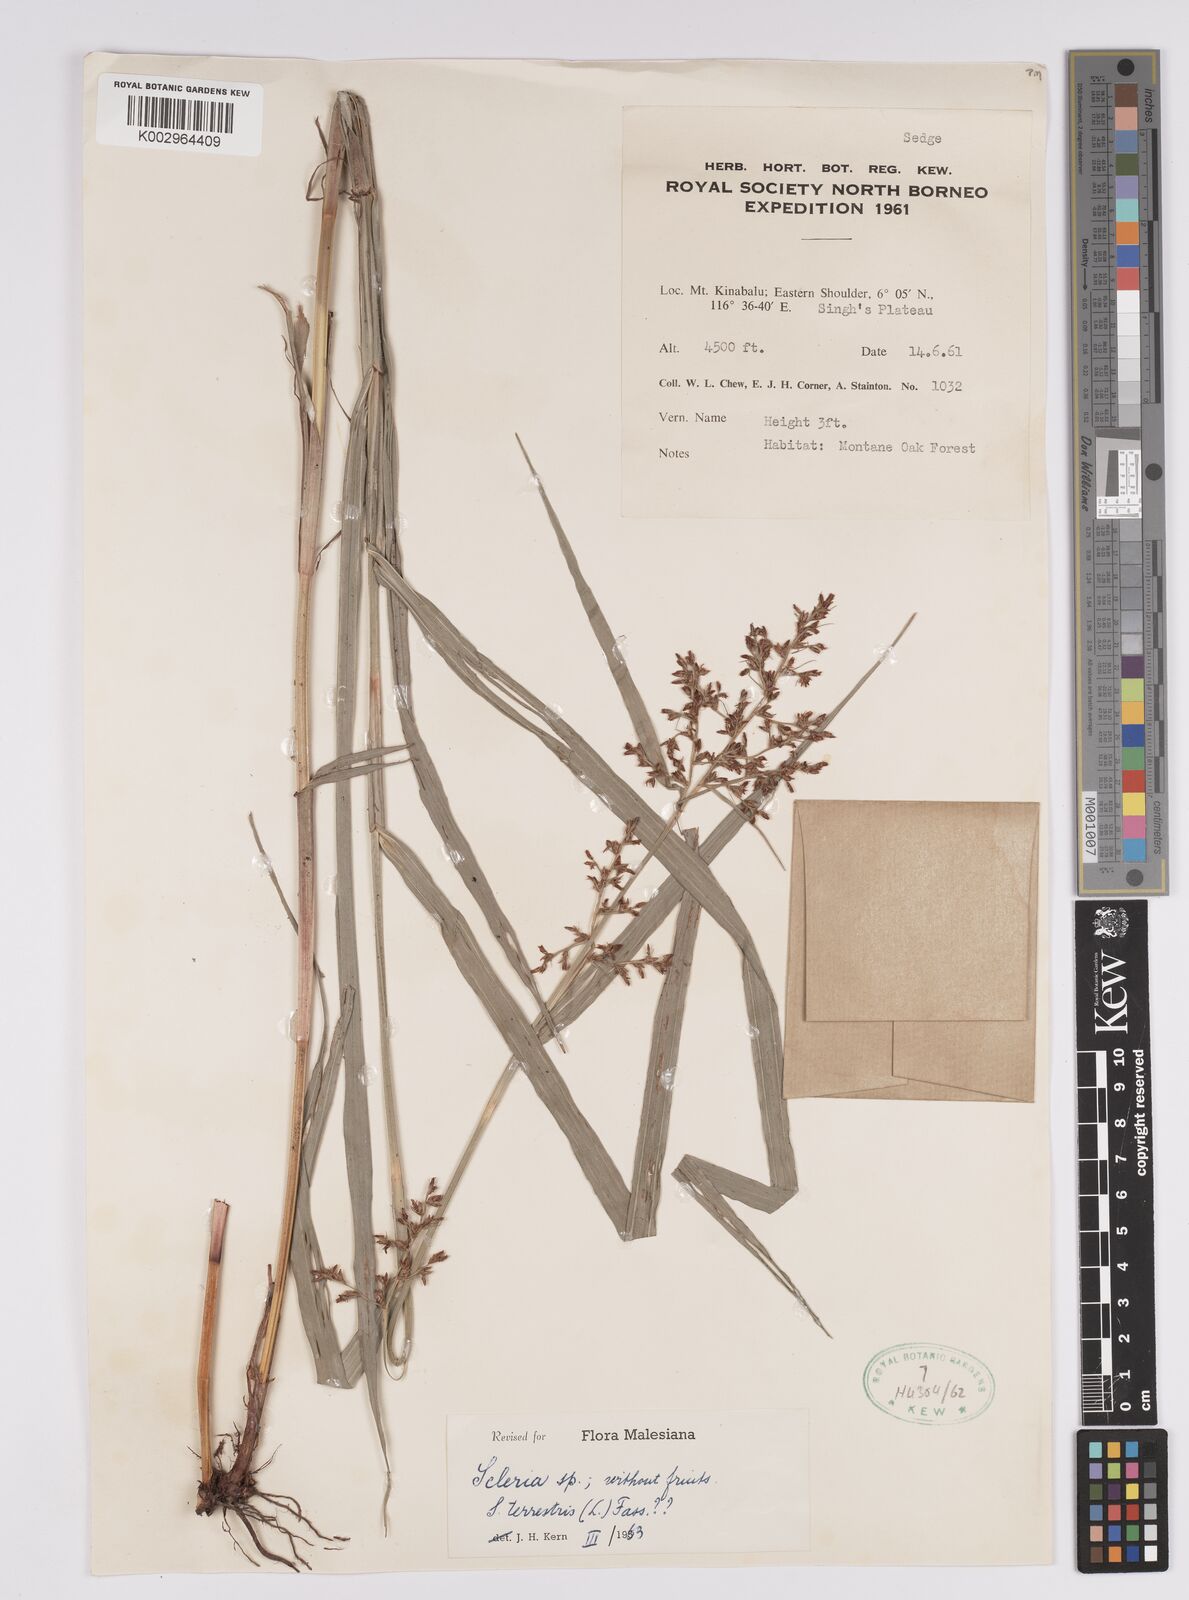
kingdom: Plantae
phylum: Tracheophyta
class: Liliopsida
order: Poales
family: Cyperaceae
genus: Scleria
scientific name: Scleria terrestris
